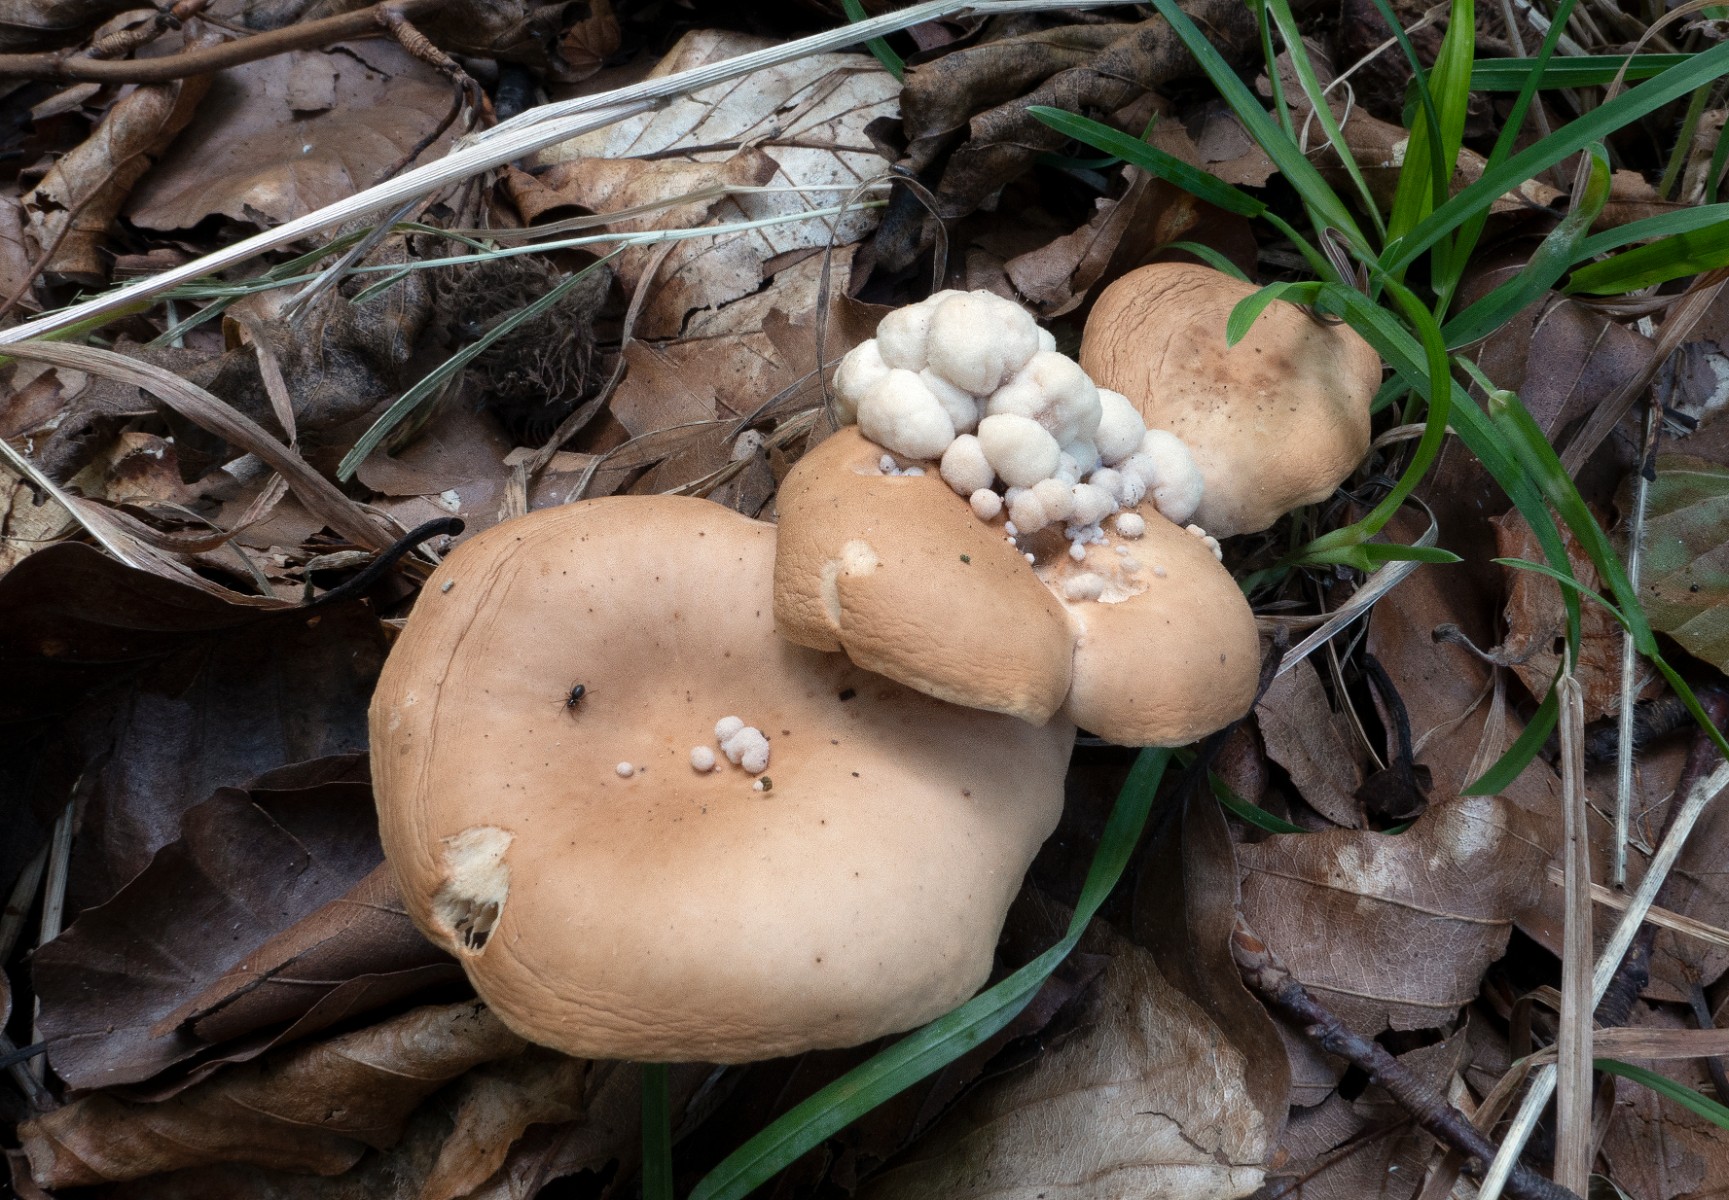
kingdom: Fungi
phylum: Basidiomycota
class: Tremellomycetes
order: Filobasidiales
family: Filobasidiaceae
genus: Syzygospora
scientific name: Syzygospora tumefaciens
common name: fladhatte-snyltehjerne
